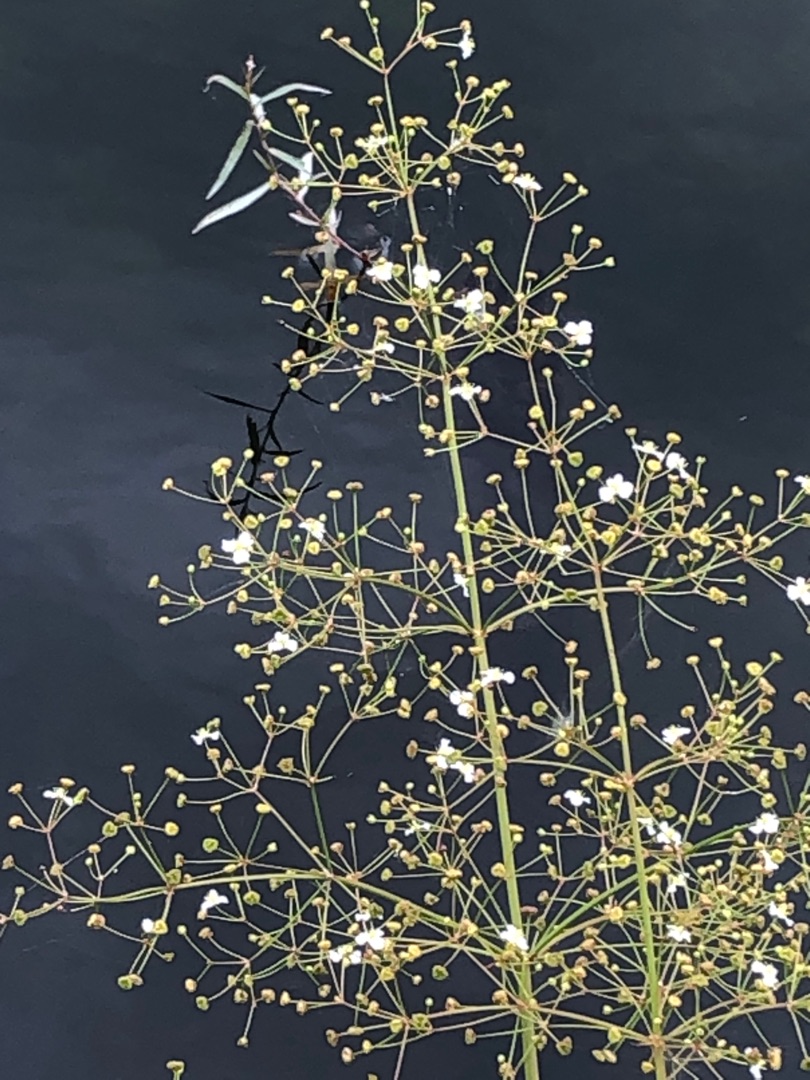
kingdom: Plantae
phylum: Tracheophyta
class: Liliopsida
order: Alismatales
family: Alismataceae
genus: Alisma
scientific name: Alisma plantago-aquatica
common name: Vejbred-skeblad
